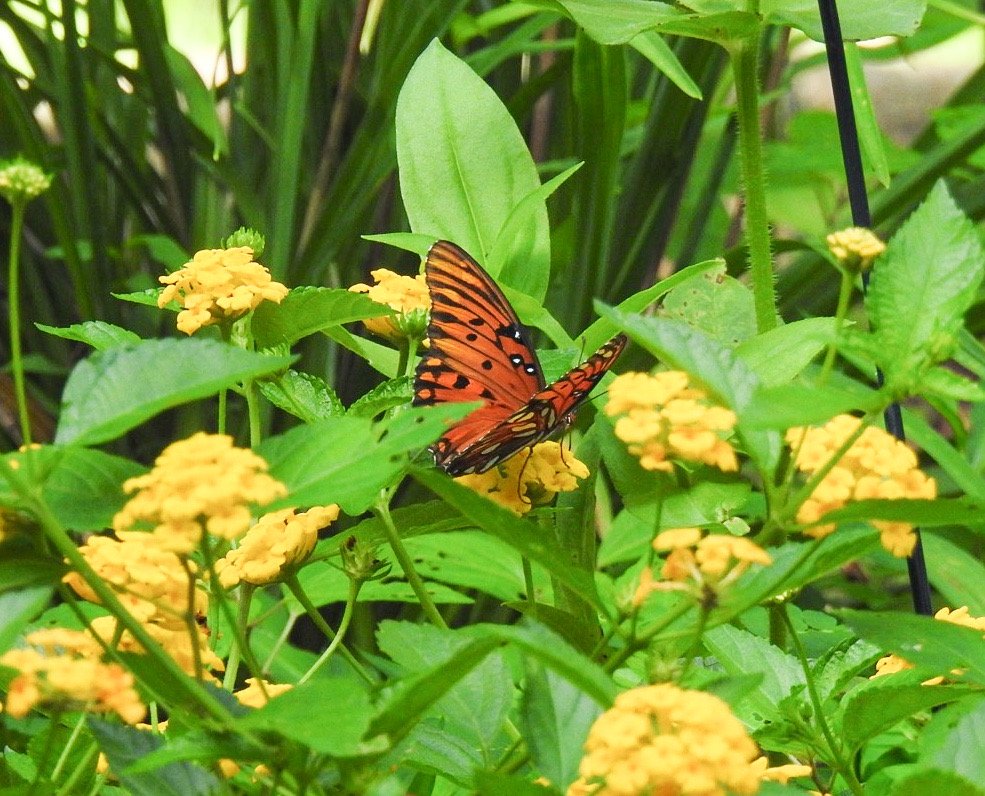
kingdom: Animalia
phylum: Arthropoda
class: Insecta
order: Lepidoptera
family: Nymphalidae
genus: Dione
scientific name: Dione vanillae
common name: Gulf Fritillary
